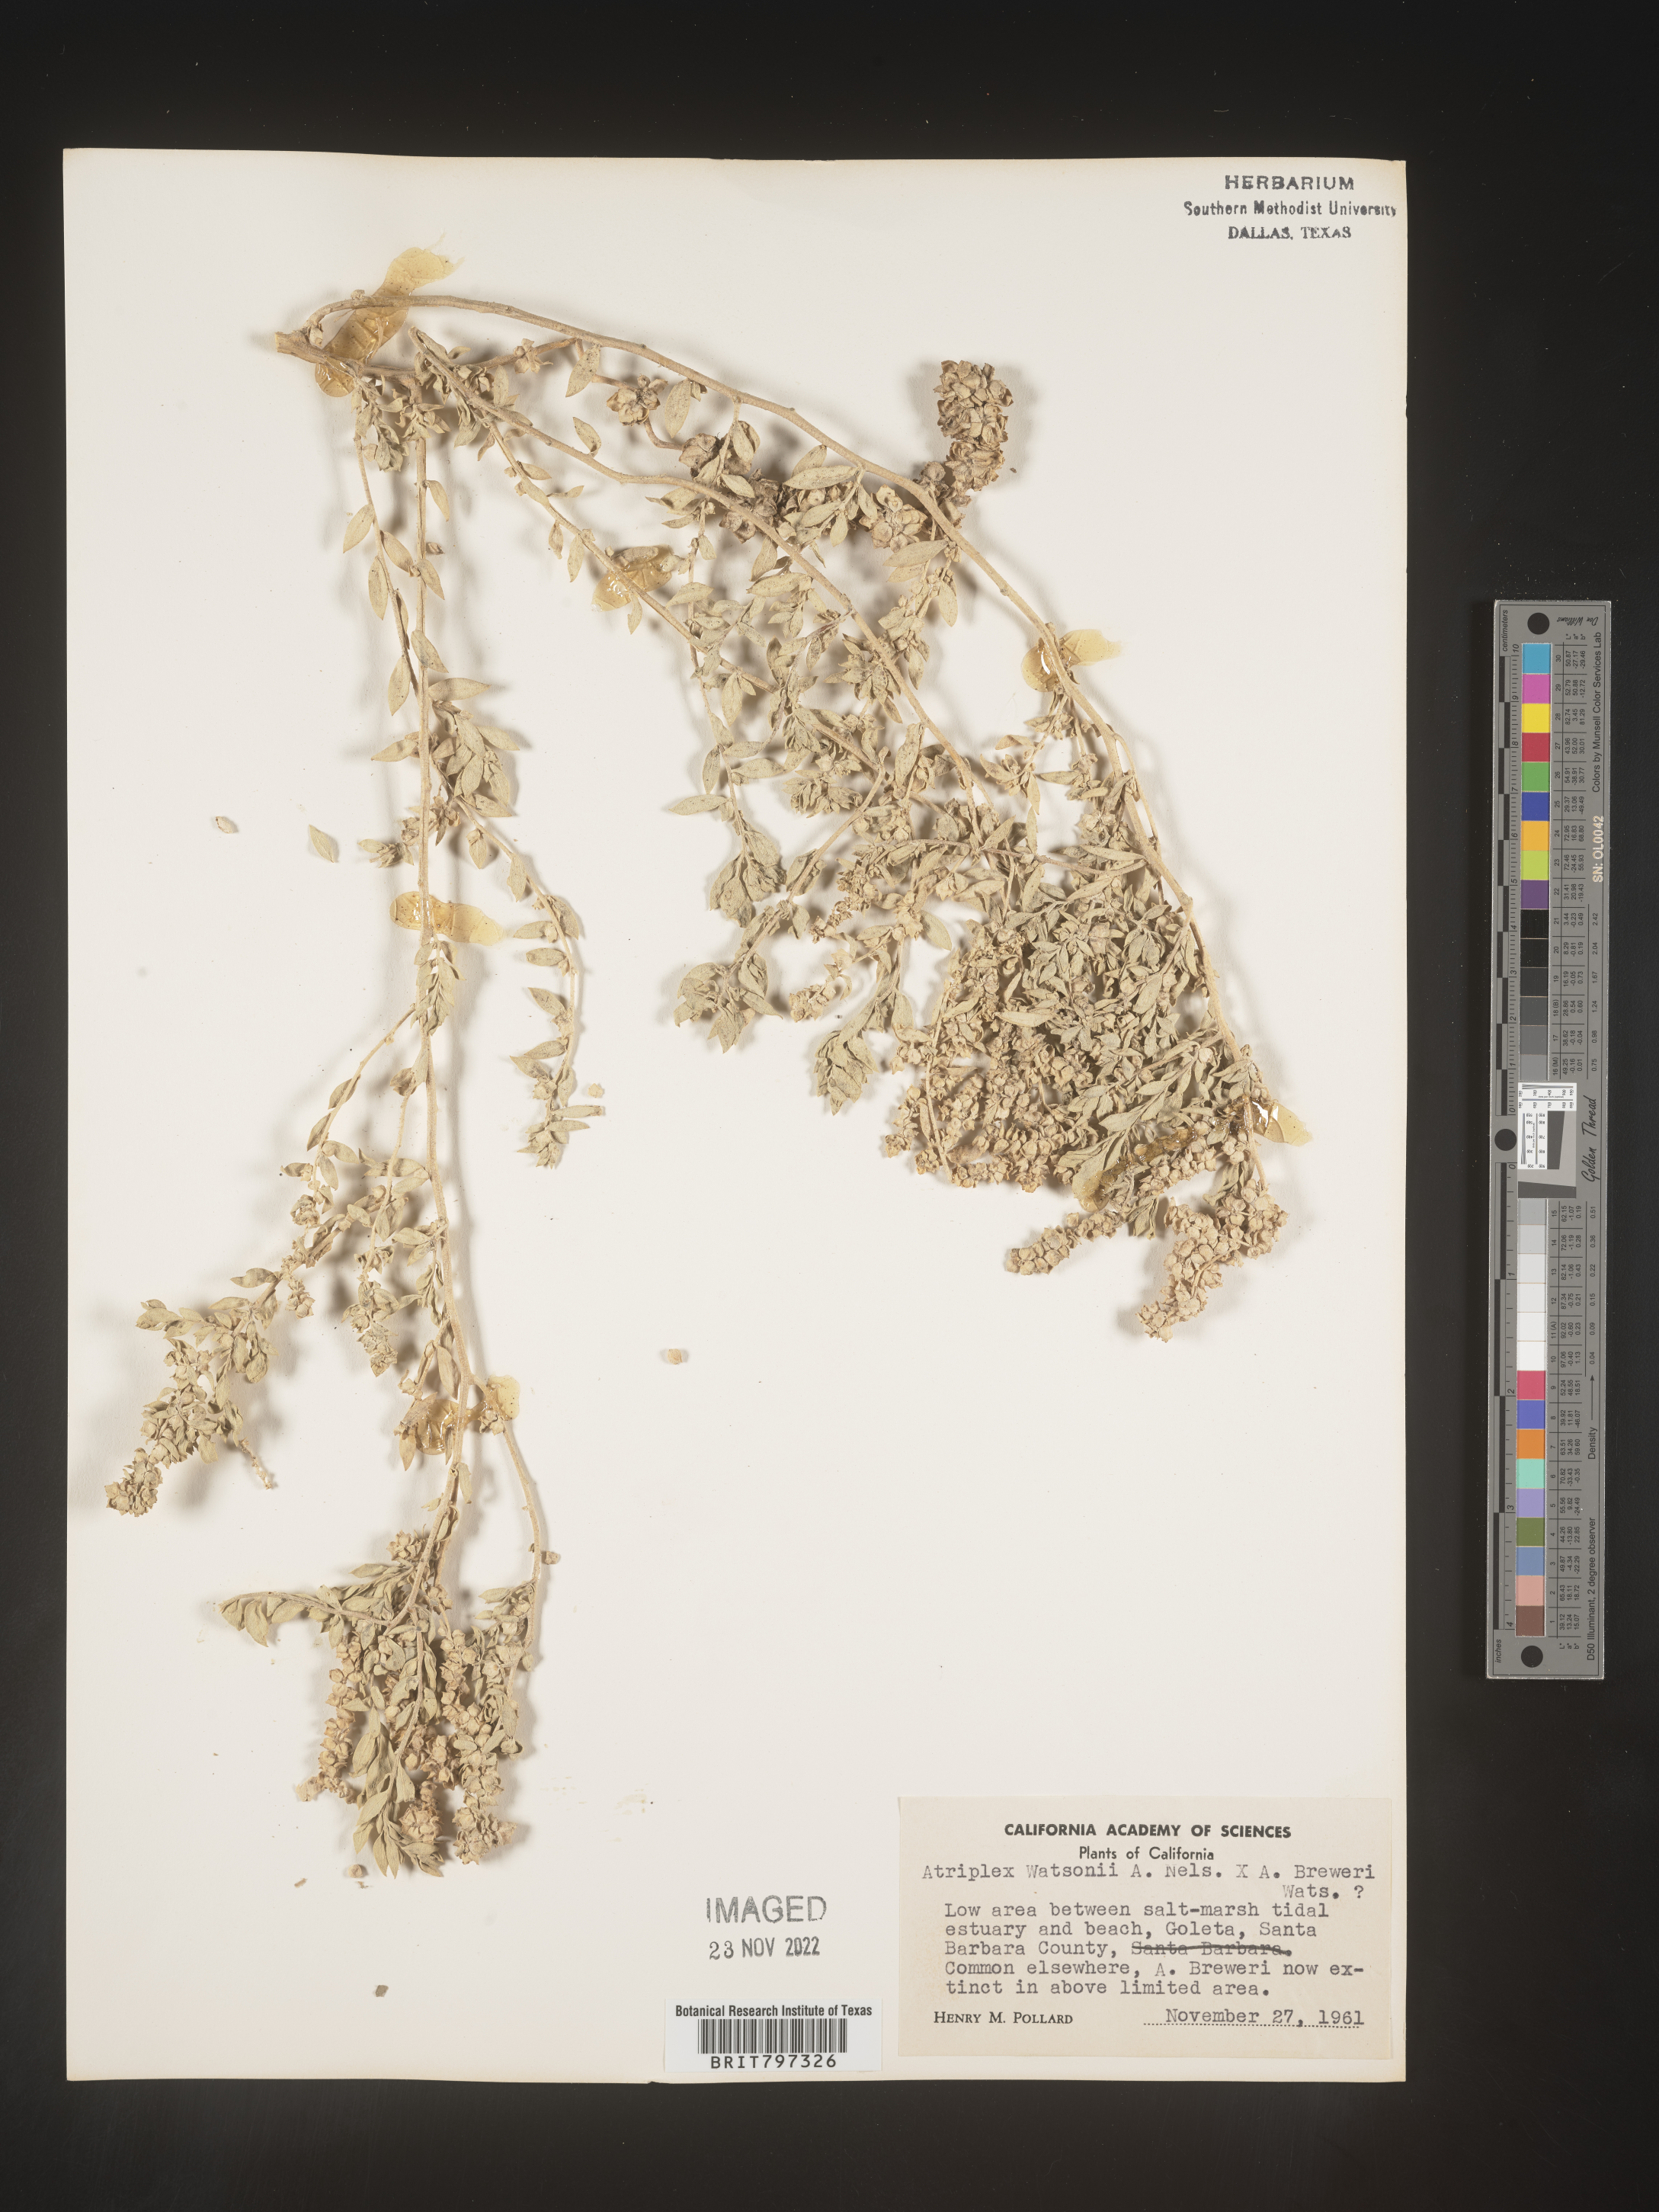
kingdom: Plantae
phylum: Tracheophyta
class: Magnoliopsida
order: Caryophyllales
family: Amaranthaceae
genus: Atriplex
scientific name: Atriplex
